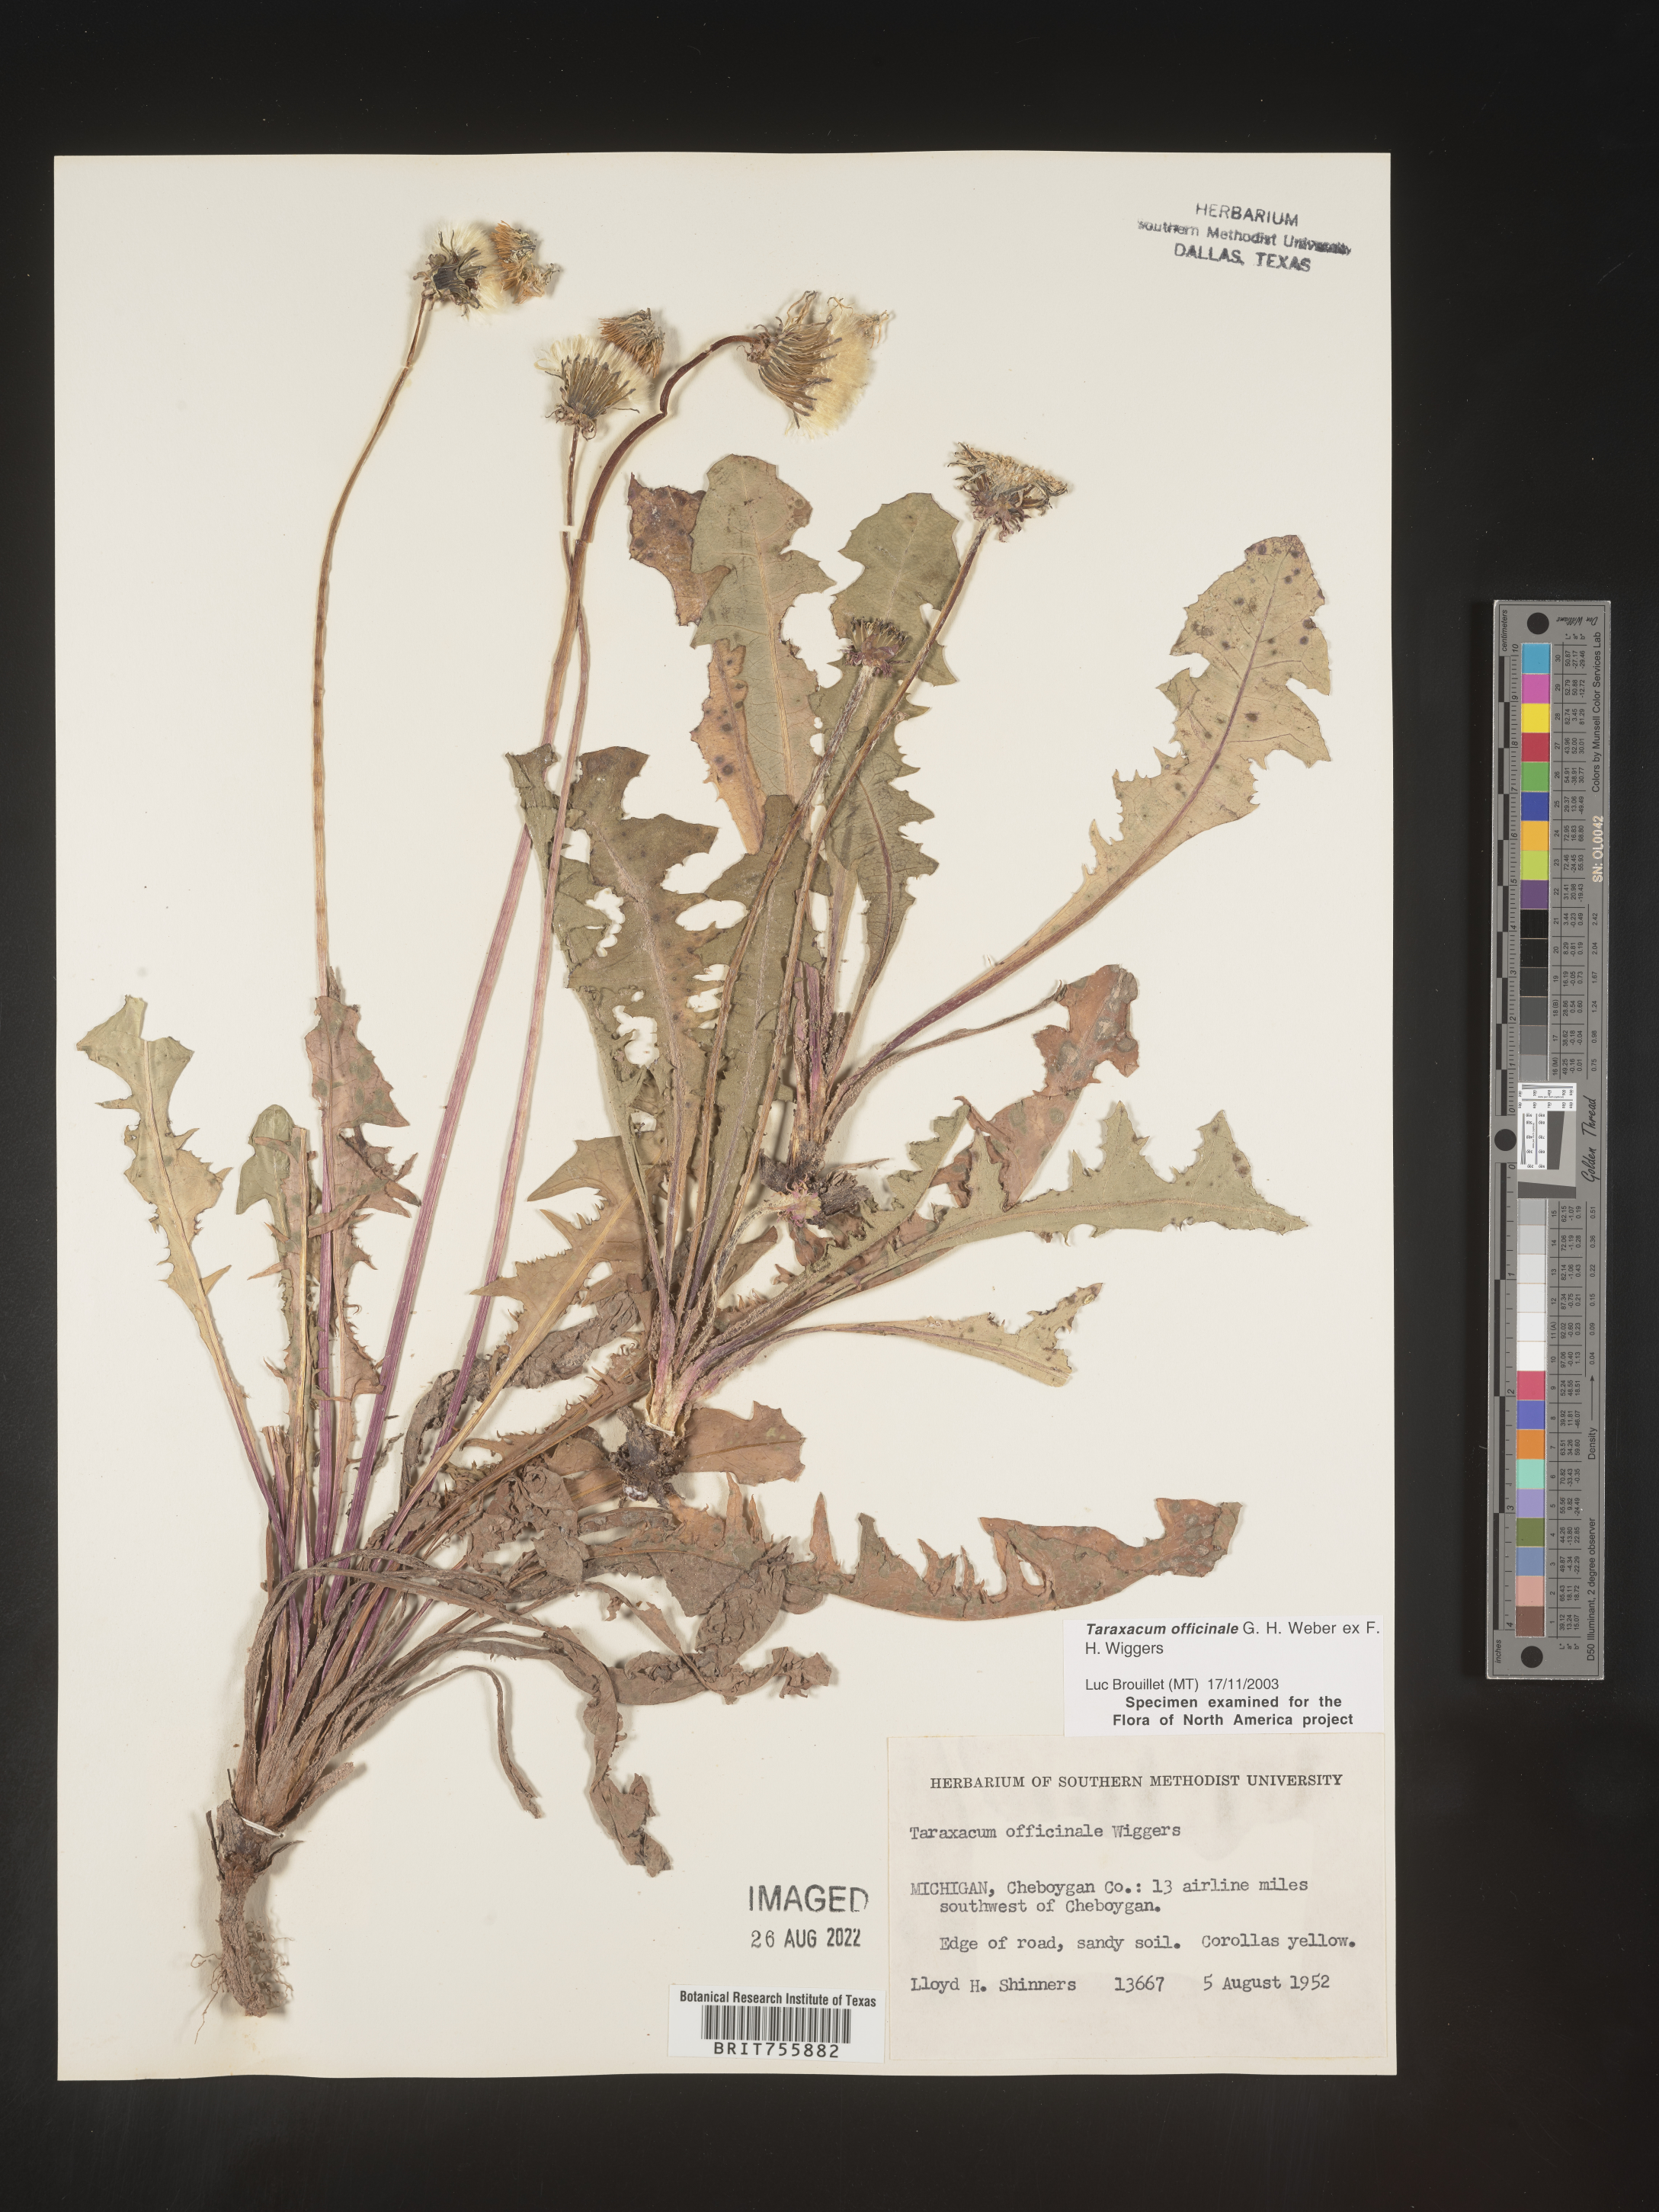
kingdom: Plantae
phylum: Tracheophyta
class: Magnoliopsida
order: Asterales
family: Asteraceae
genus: Taraxacum
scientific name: Taraxacum officinale
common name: Common dandelion
